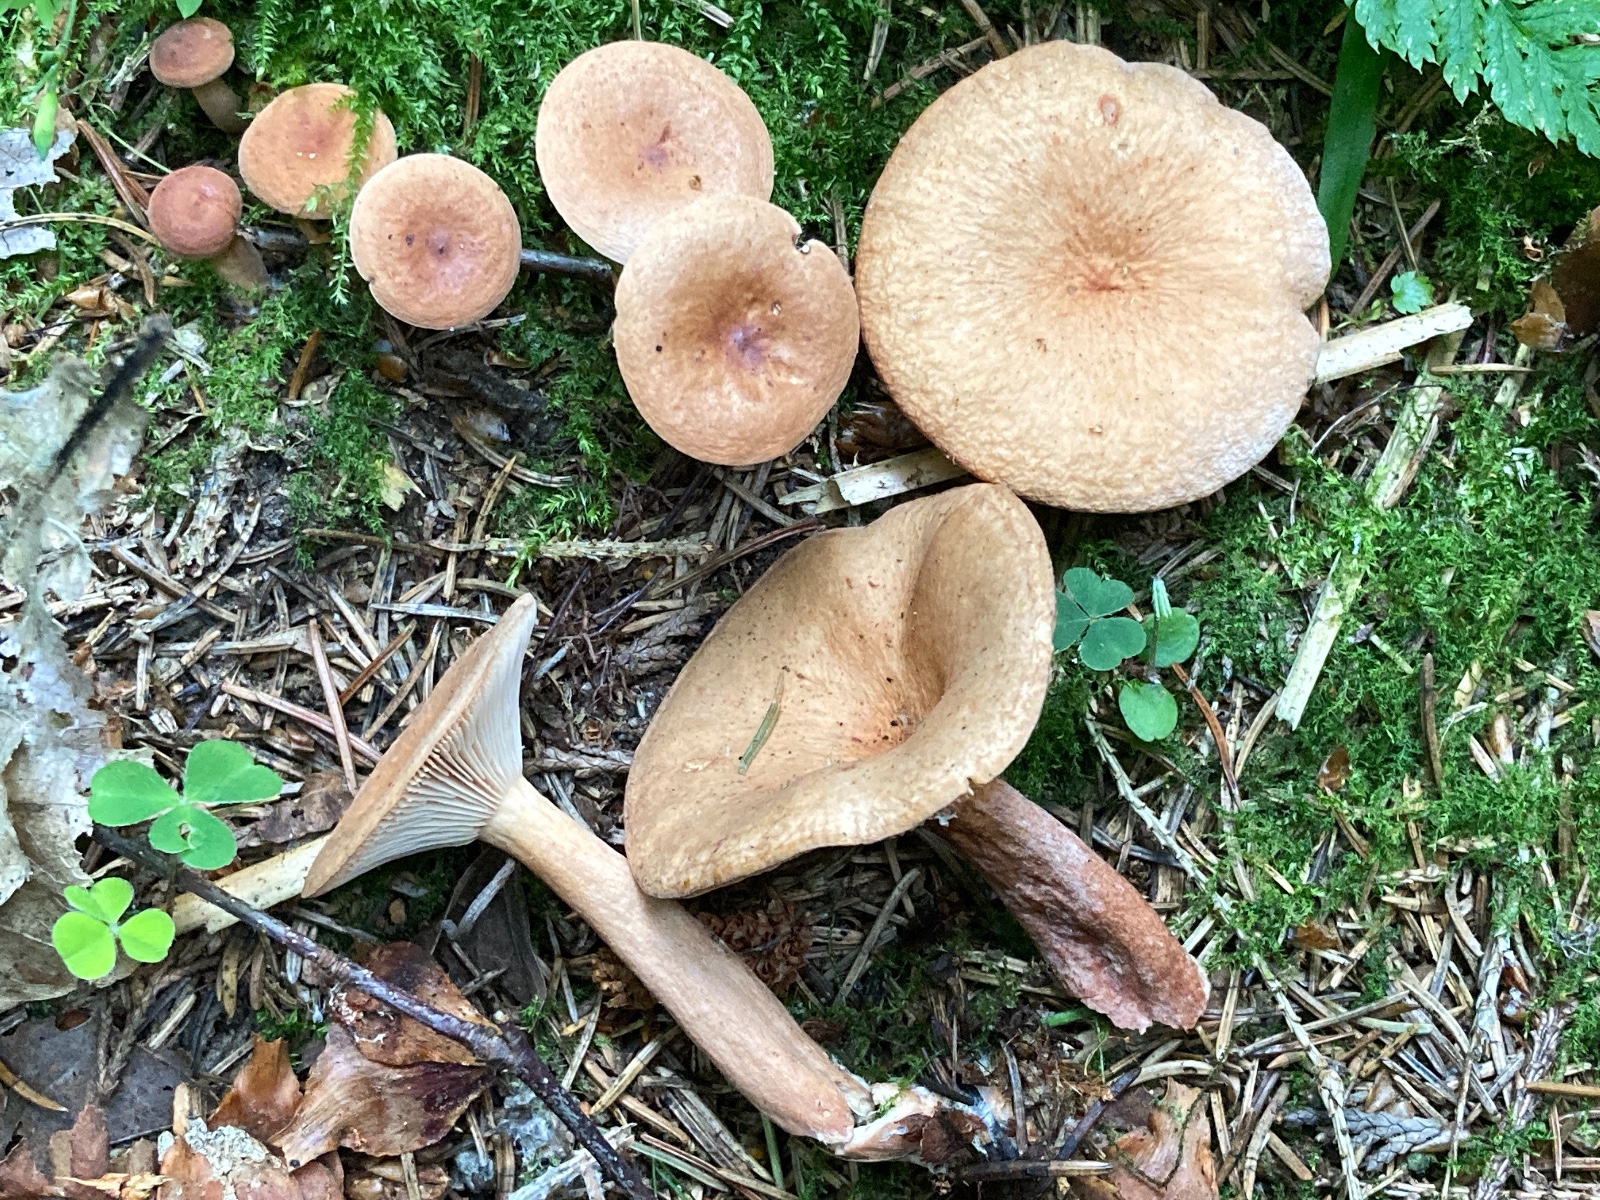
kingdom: Fungi
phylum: Basidiomycota
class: Agaricomycetes
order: Russulales
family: Russulaceae
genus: Lactarius
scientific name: Lactarius tabidus
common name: rynket mælkehat
